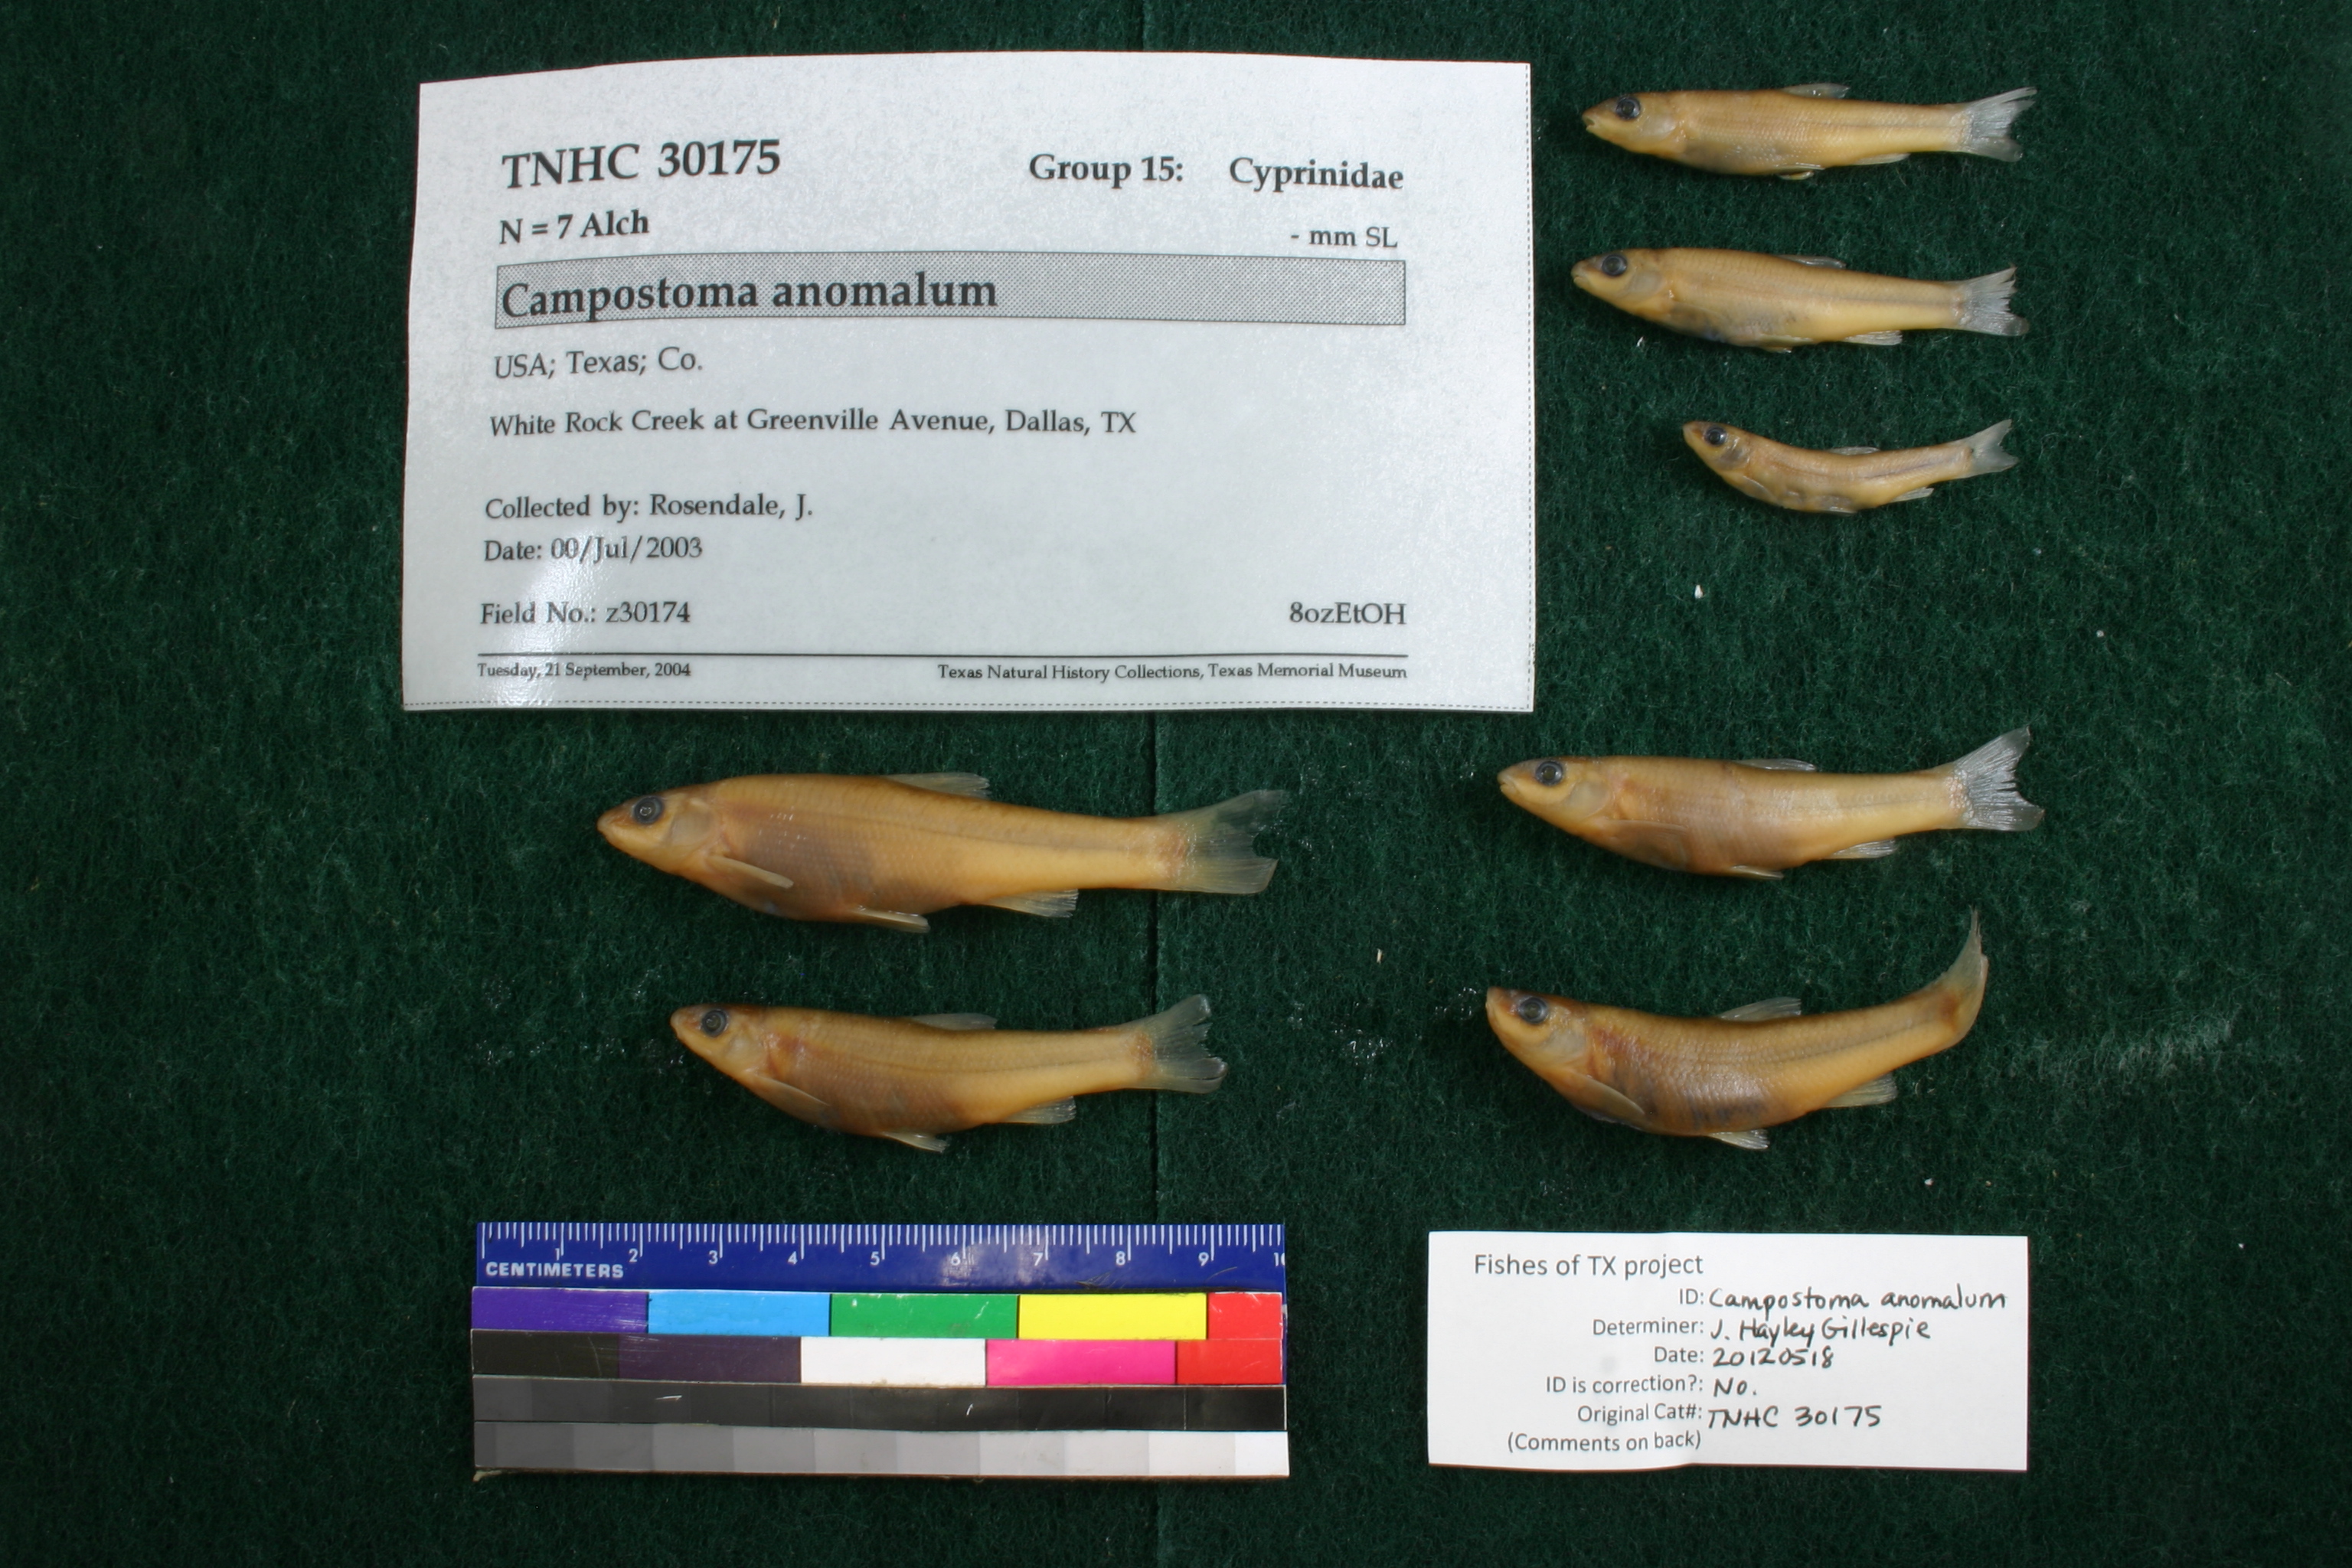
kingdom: Animalia
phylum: Chordata
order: Cypriniformes
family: Cyprinidae
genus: Campostoma
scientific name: Campostoma anomalum
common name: Central stoneroller
